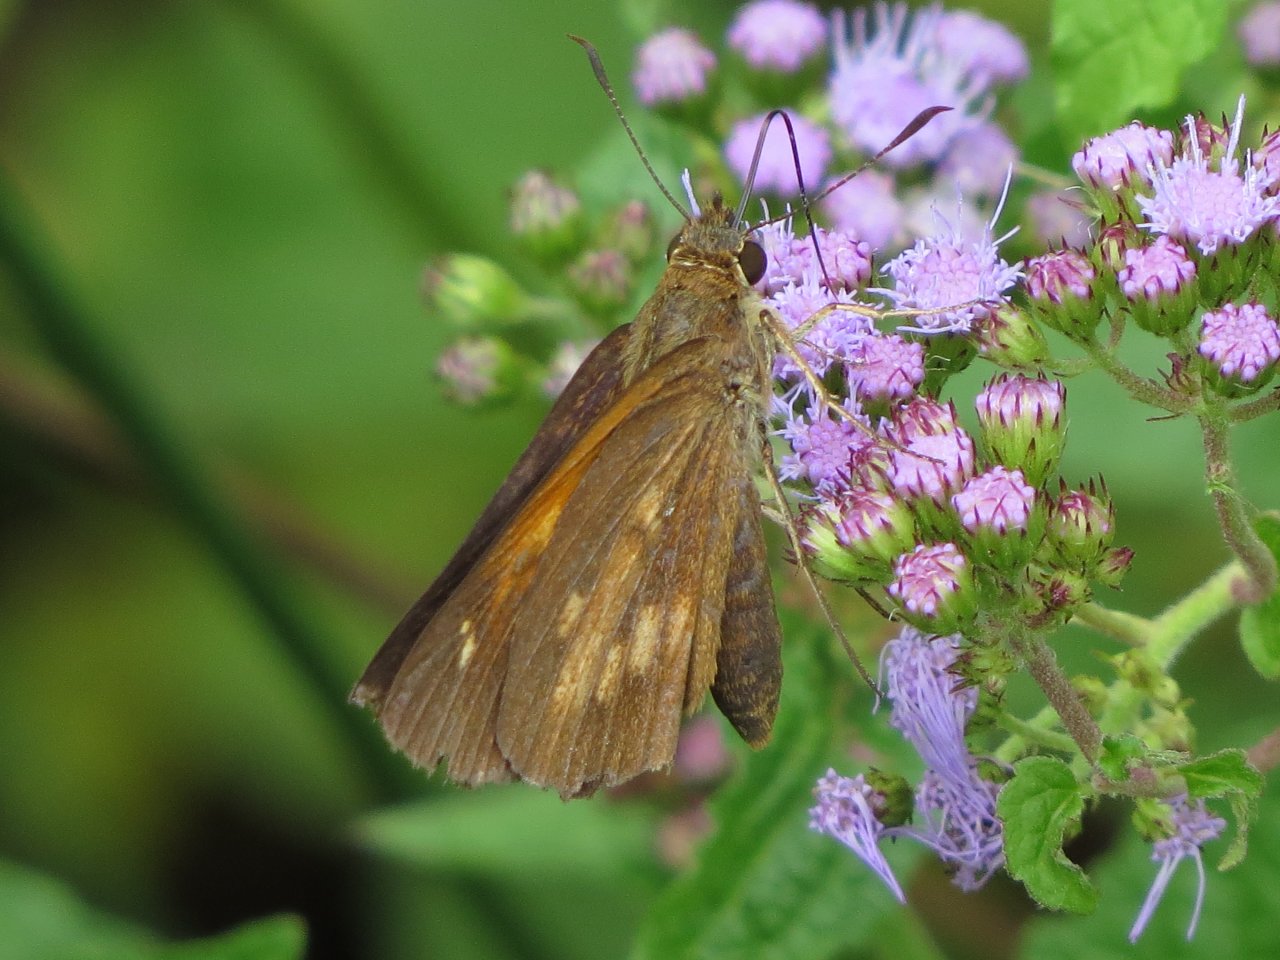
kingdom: Animalia
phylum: Arthropoda
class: Insecta
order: Lepidoptera
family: Hesperiidae
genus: Poanes
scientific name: Poanes viator
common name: Broad-winged Skipper
